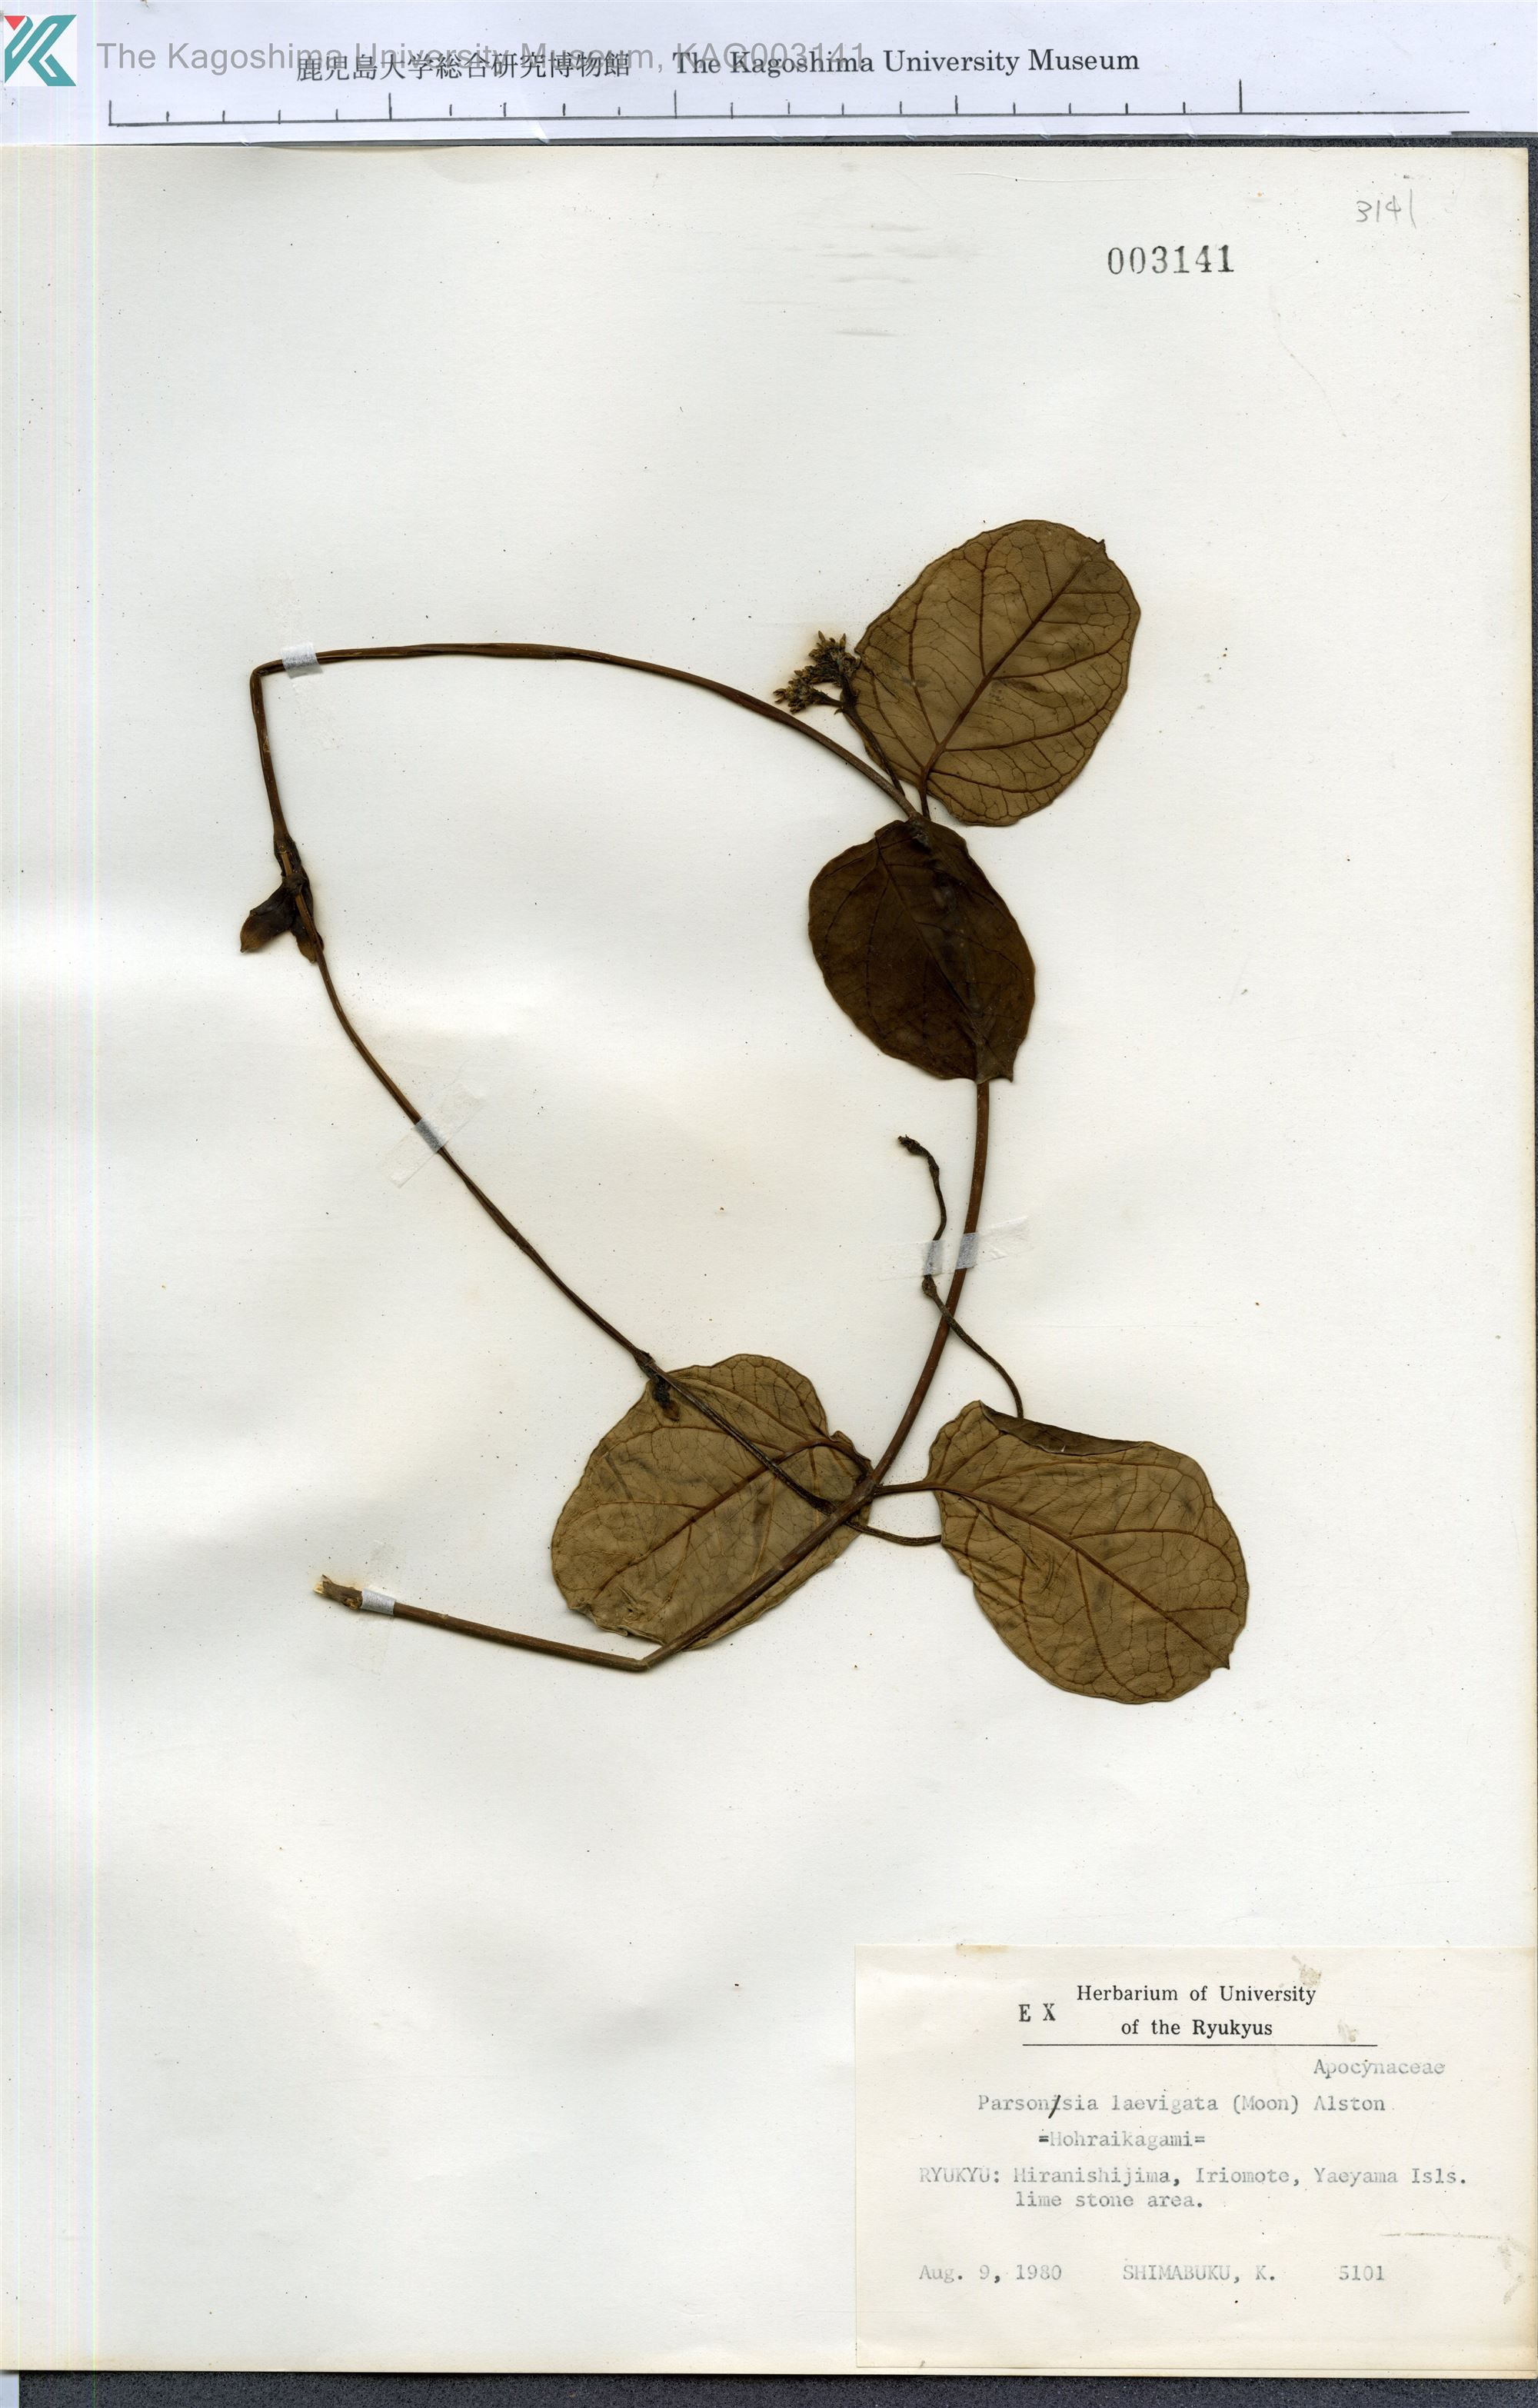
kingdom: Plantae
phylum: Tracheophyta
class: Magnoliopsida
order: Gentianales
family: Apocynaceae
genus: Parsonsia
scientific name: Parsonsia alboflavescens
